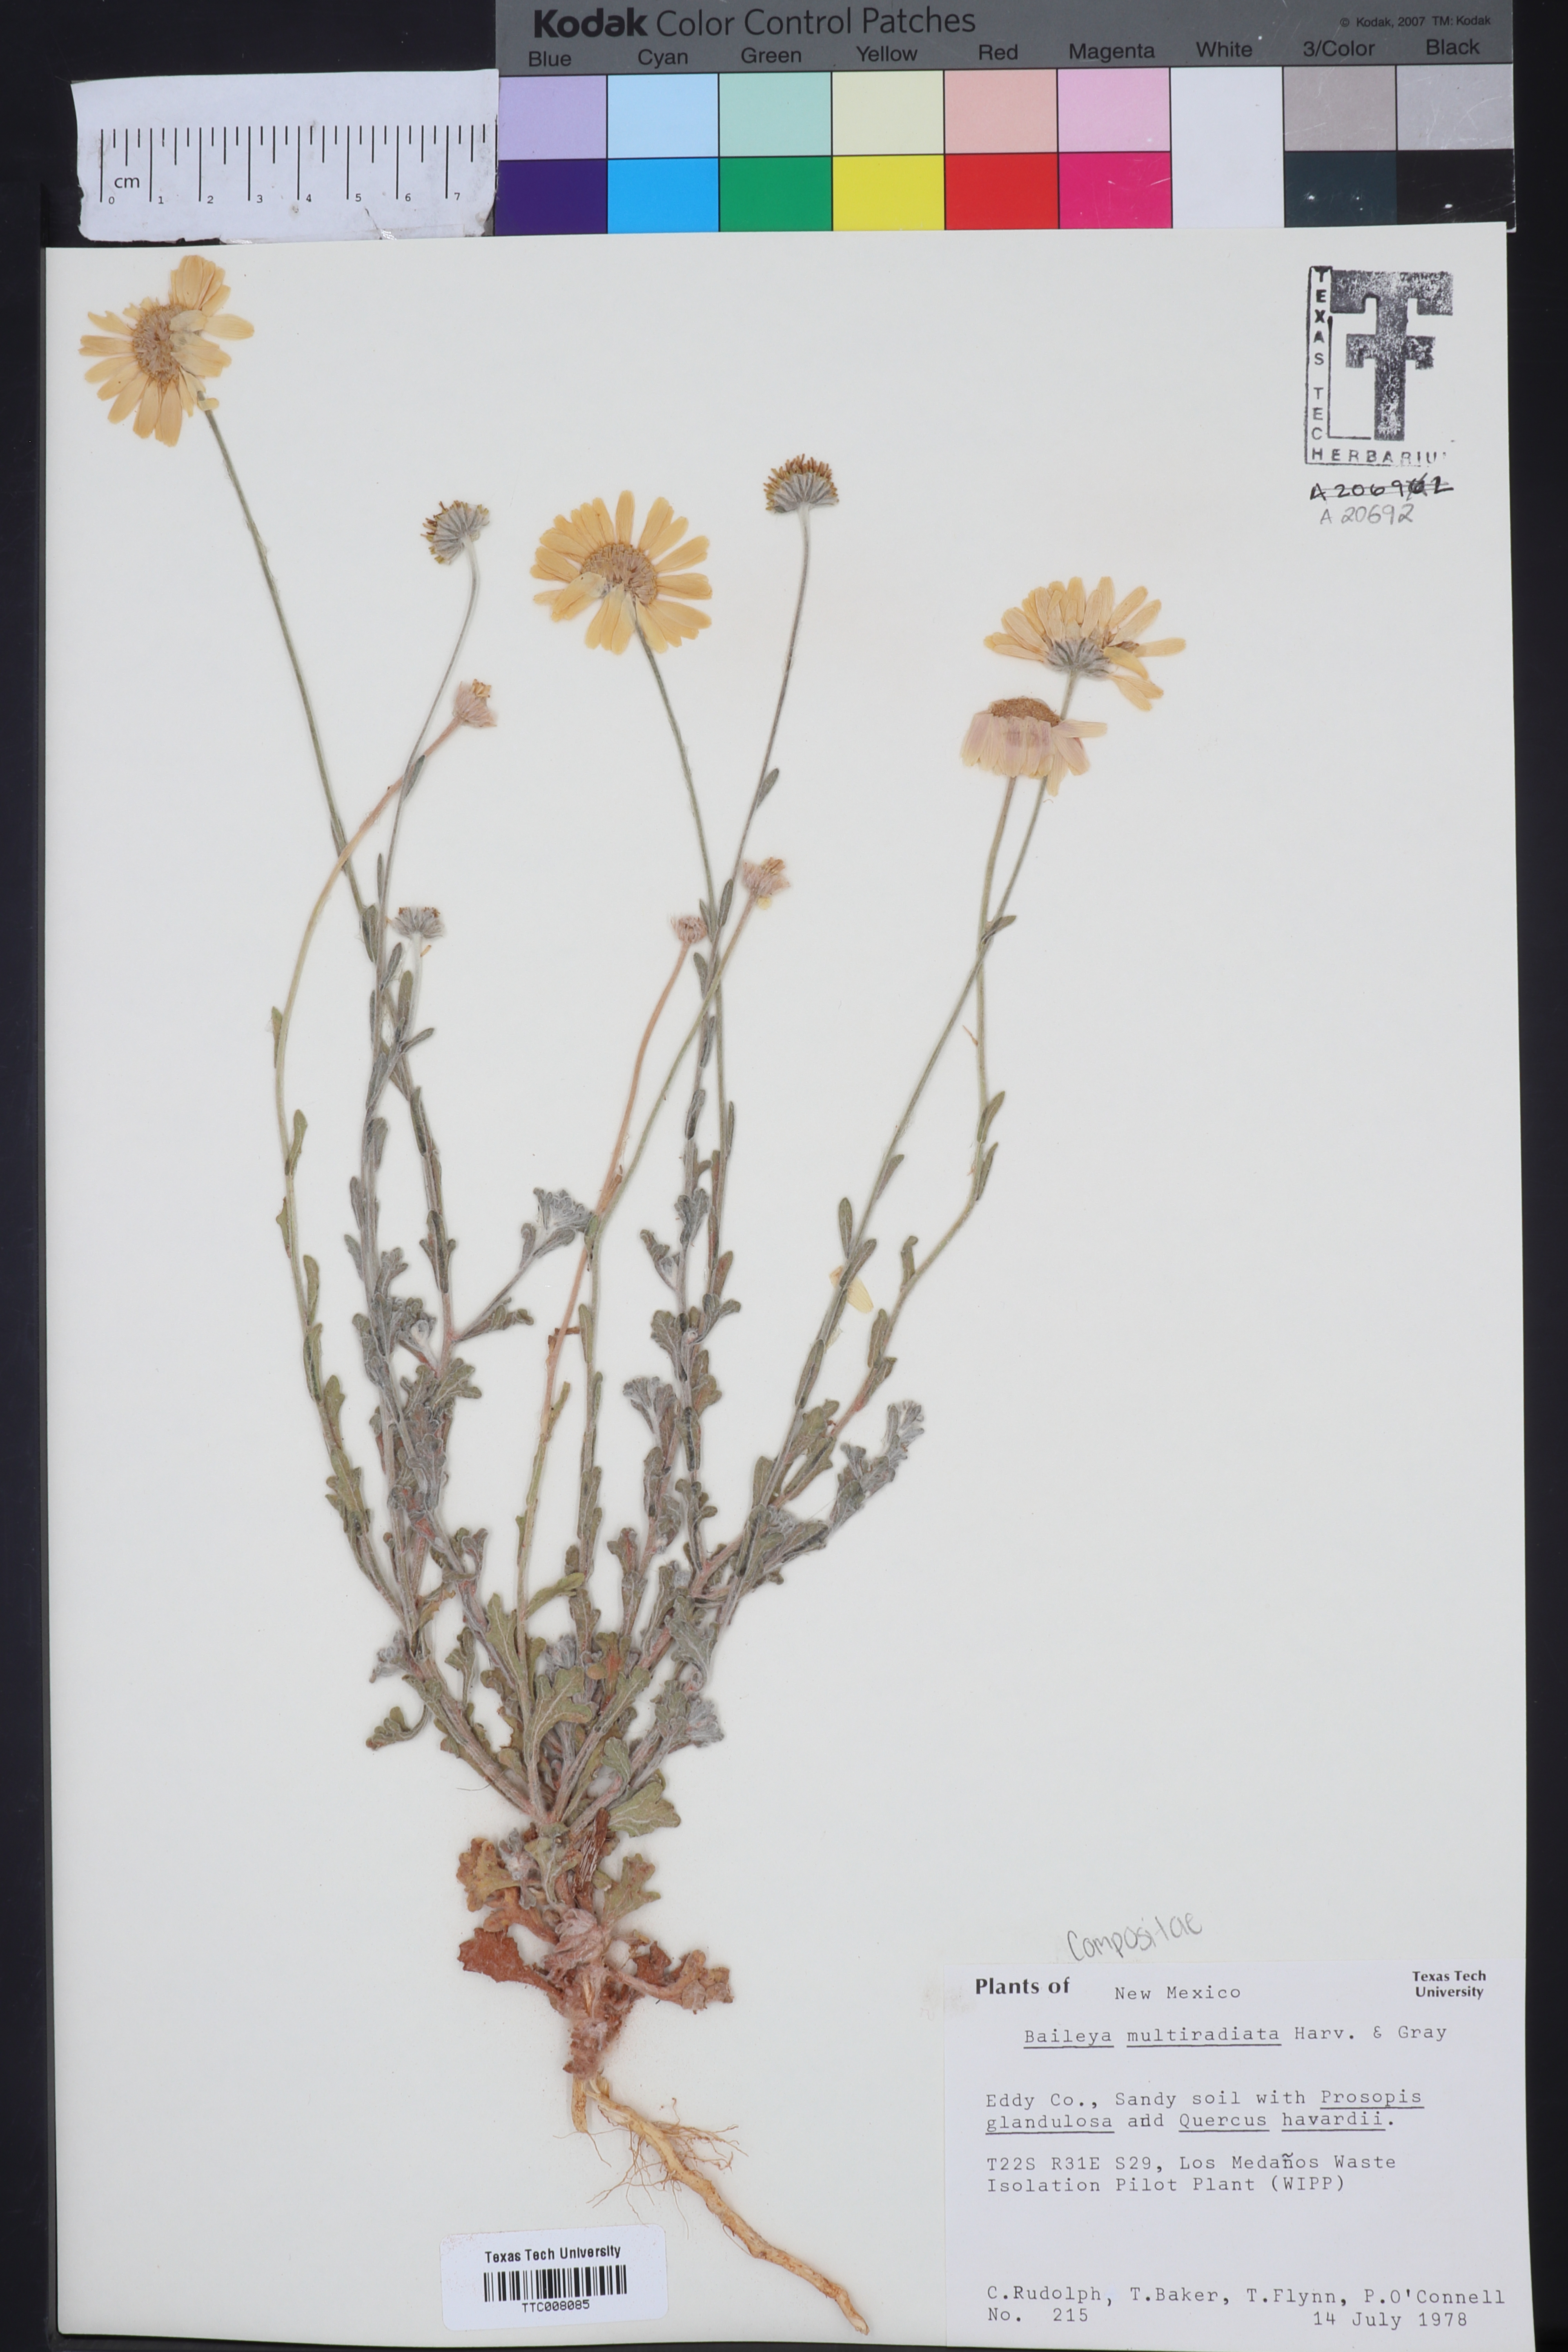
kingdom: Plantae
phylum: Tracheophyta
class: Magnoliopsida
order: Asterales
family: Asteraceae
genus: Baileya
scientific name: Baileya multiradiata
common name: Desert-marigold
